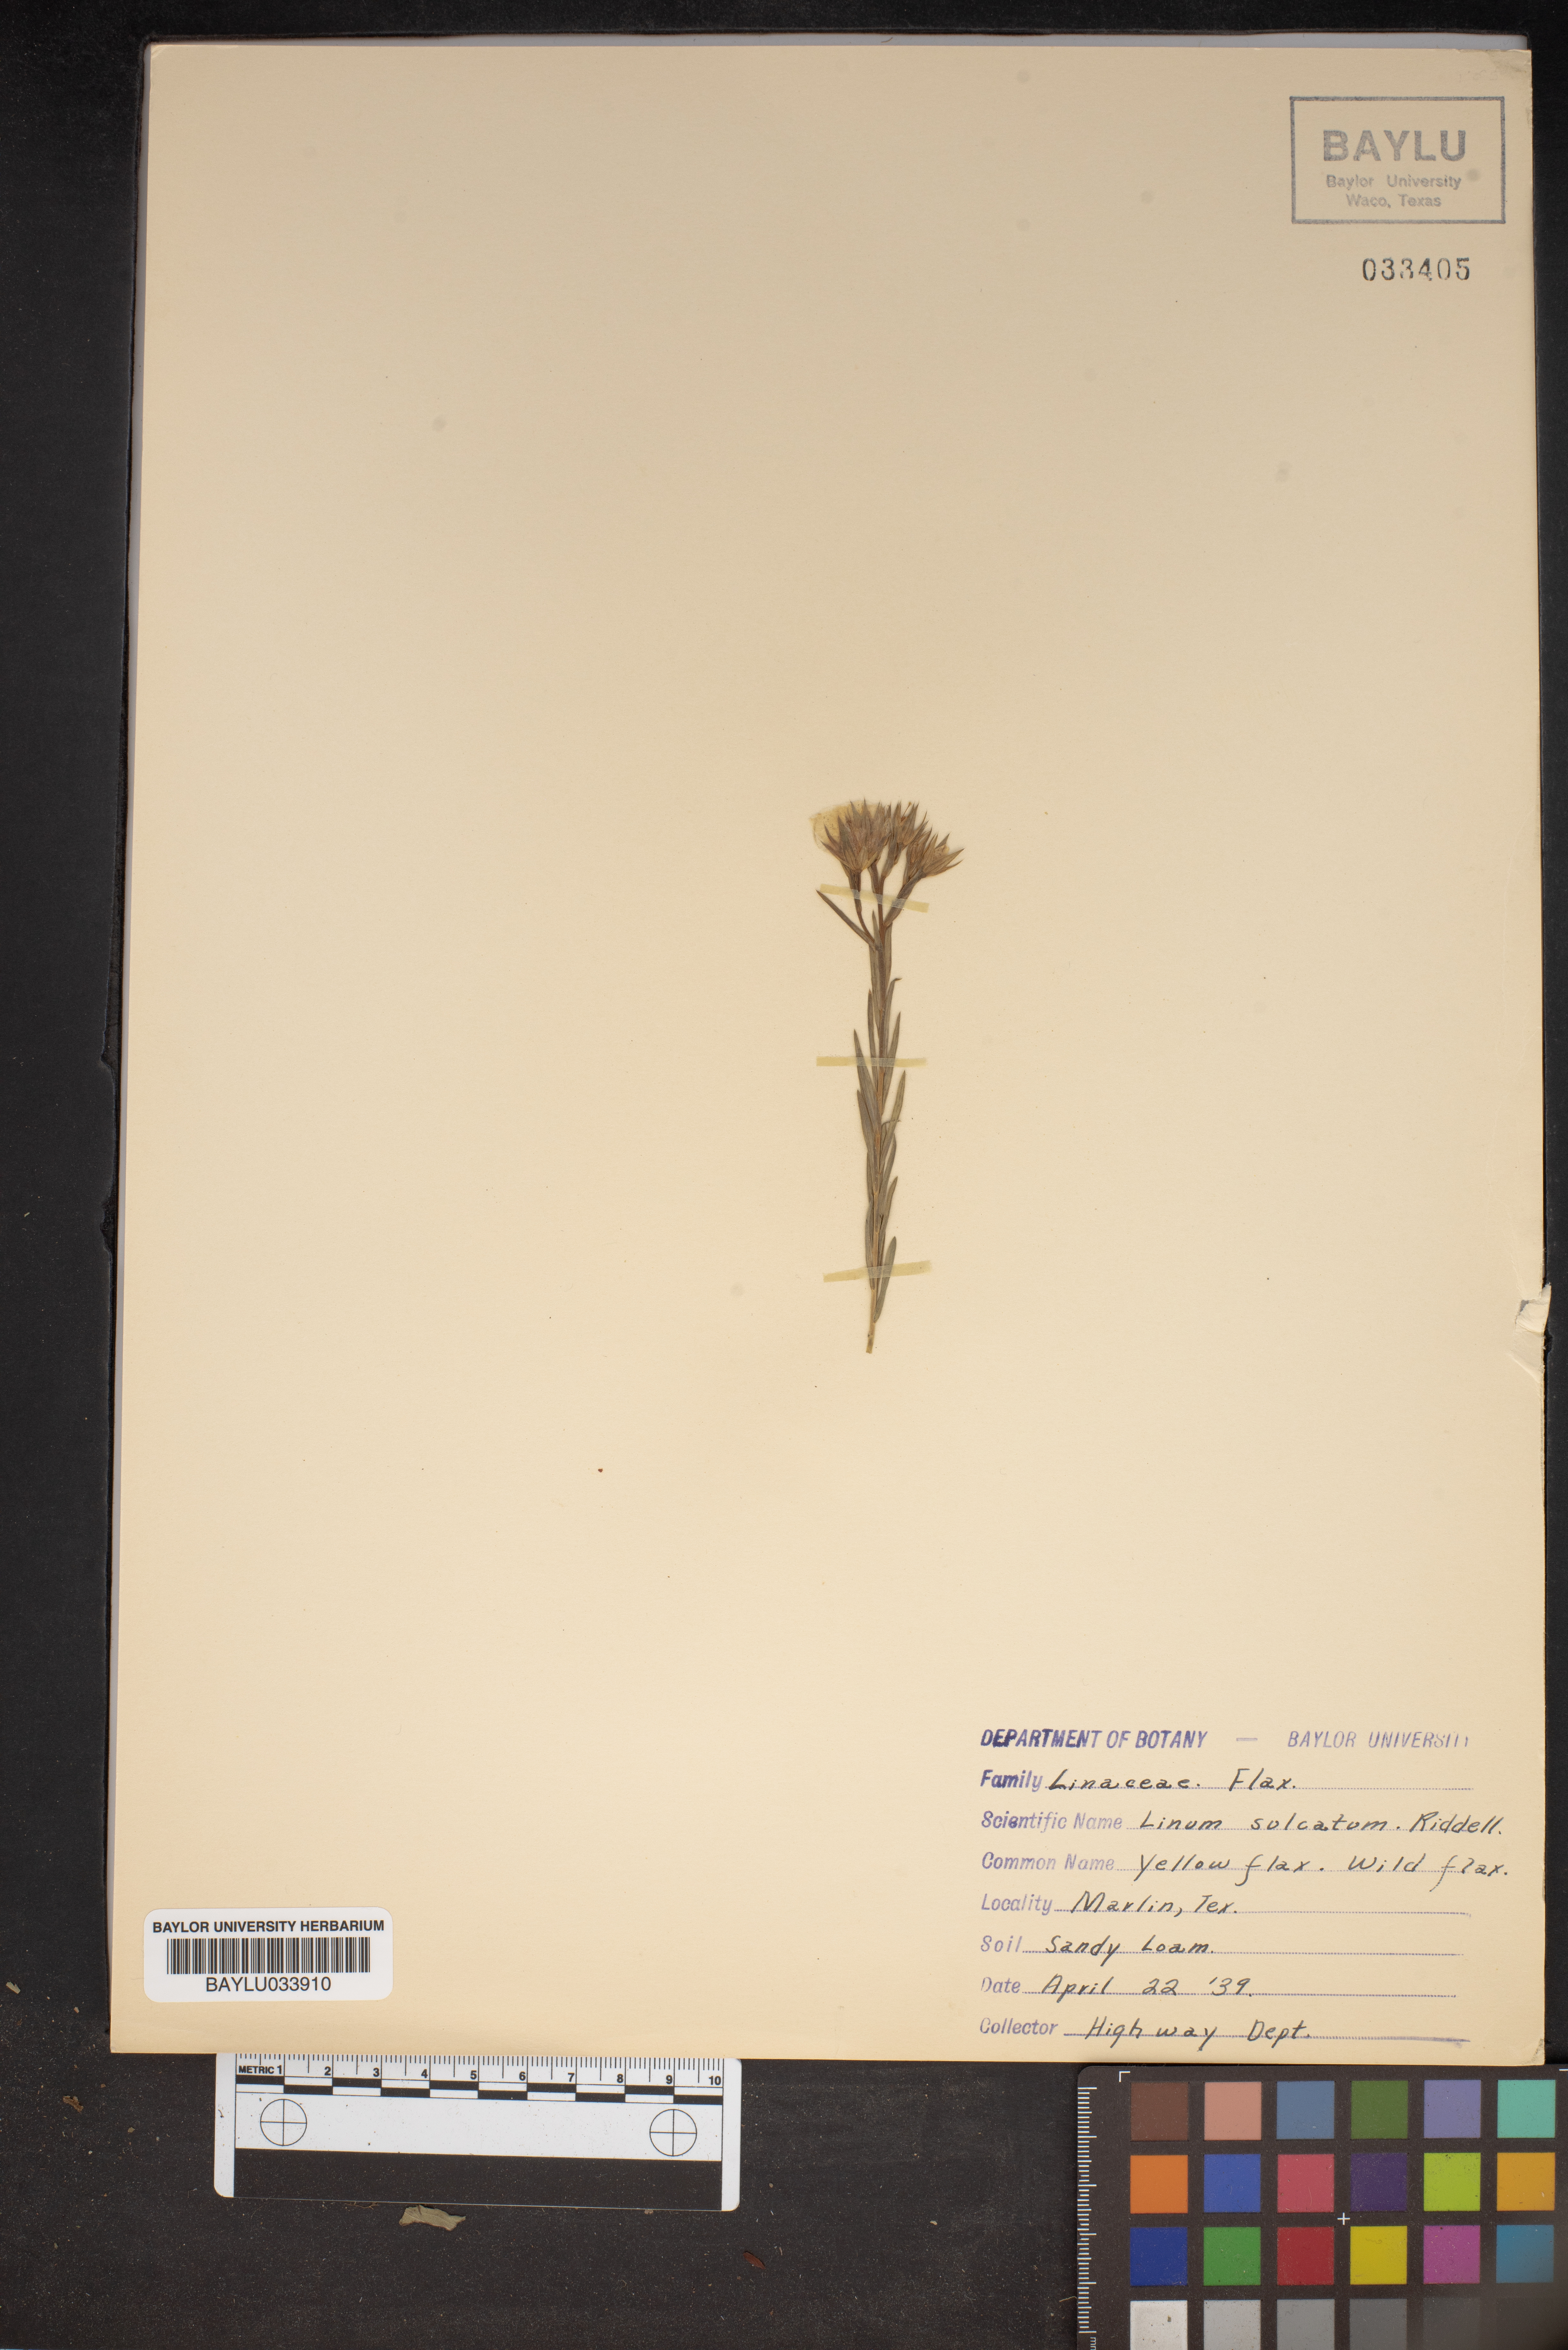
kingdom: Plantae
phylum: Tracheophyta
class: Magnoliopsida
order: Malpighiales
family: Linaceae
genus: Linum
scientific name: Linum sulcatum
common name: Grooved flax
